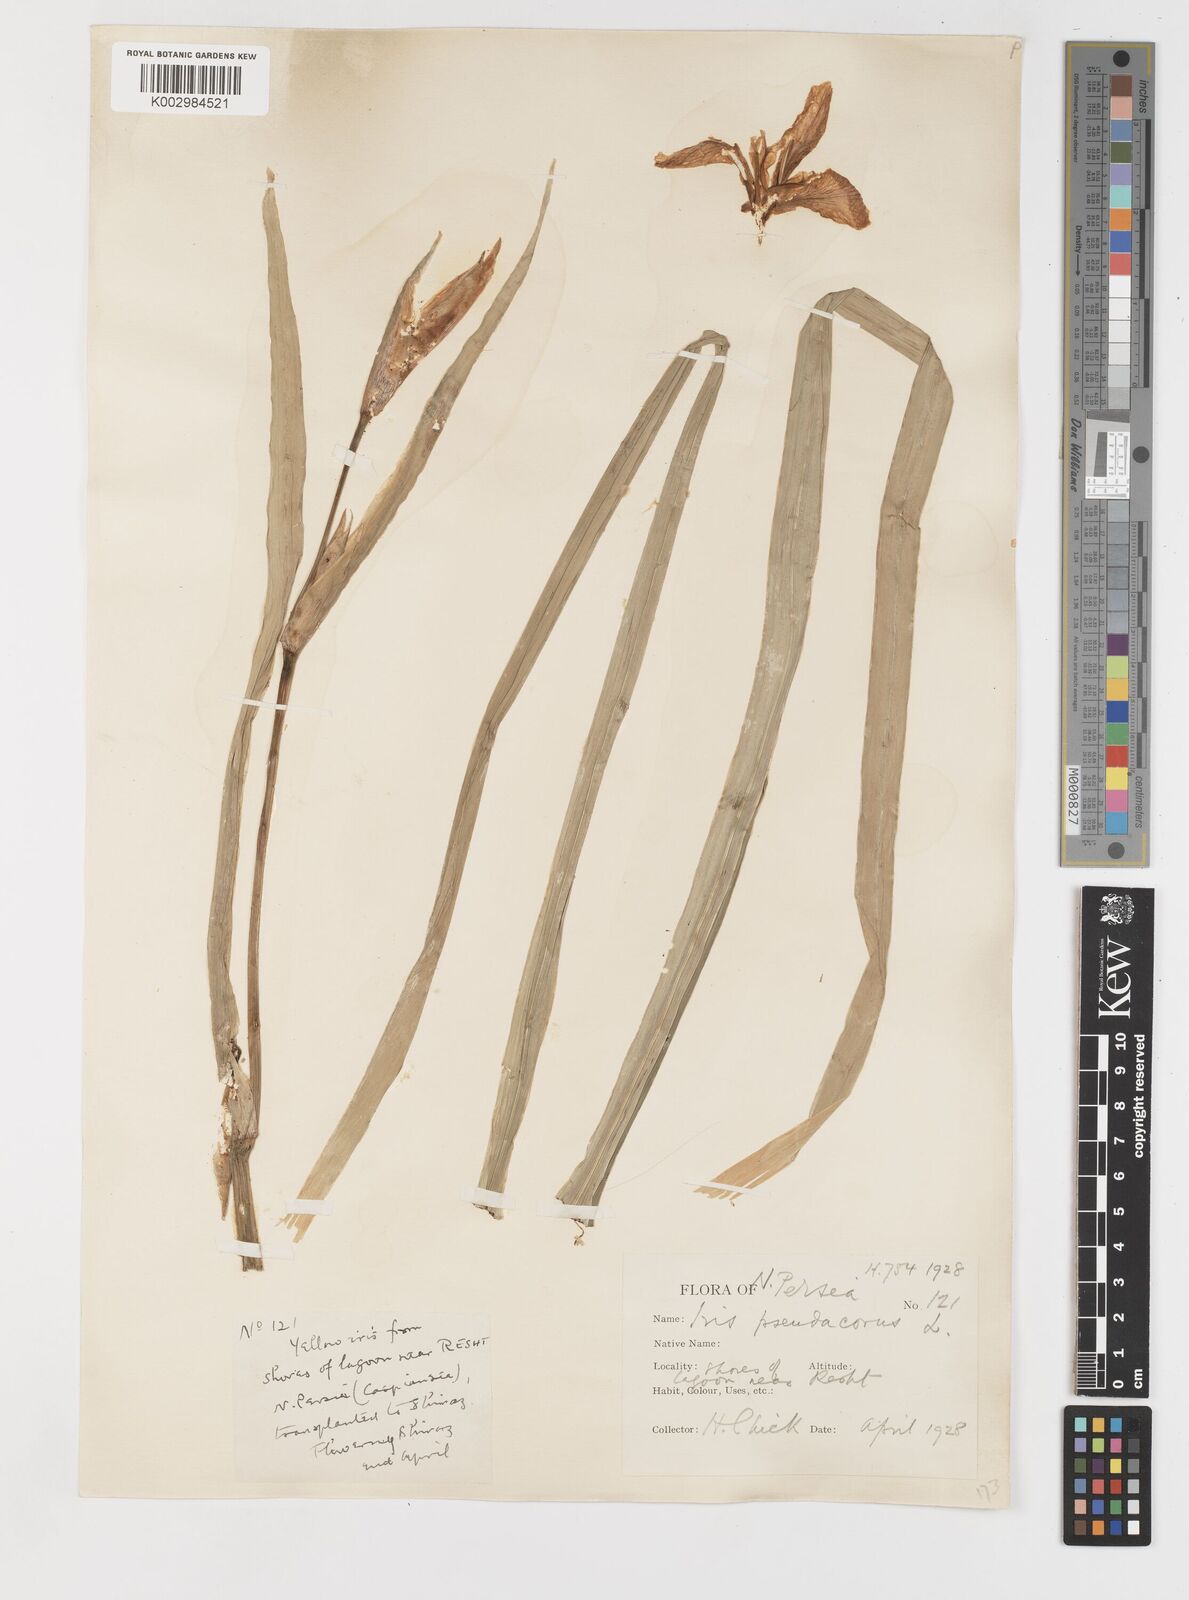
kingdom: Plantae
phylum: Tracheophyta
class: Liliopsida
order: Asparagales
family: Iridaceae
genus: Iris
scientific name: Iris pseudacorus
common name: Yellow flag
